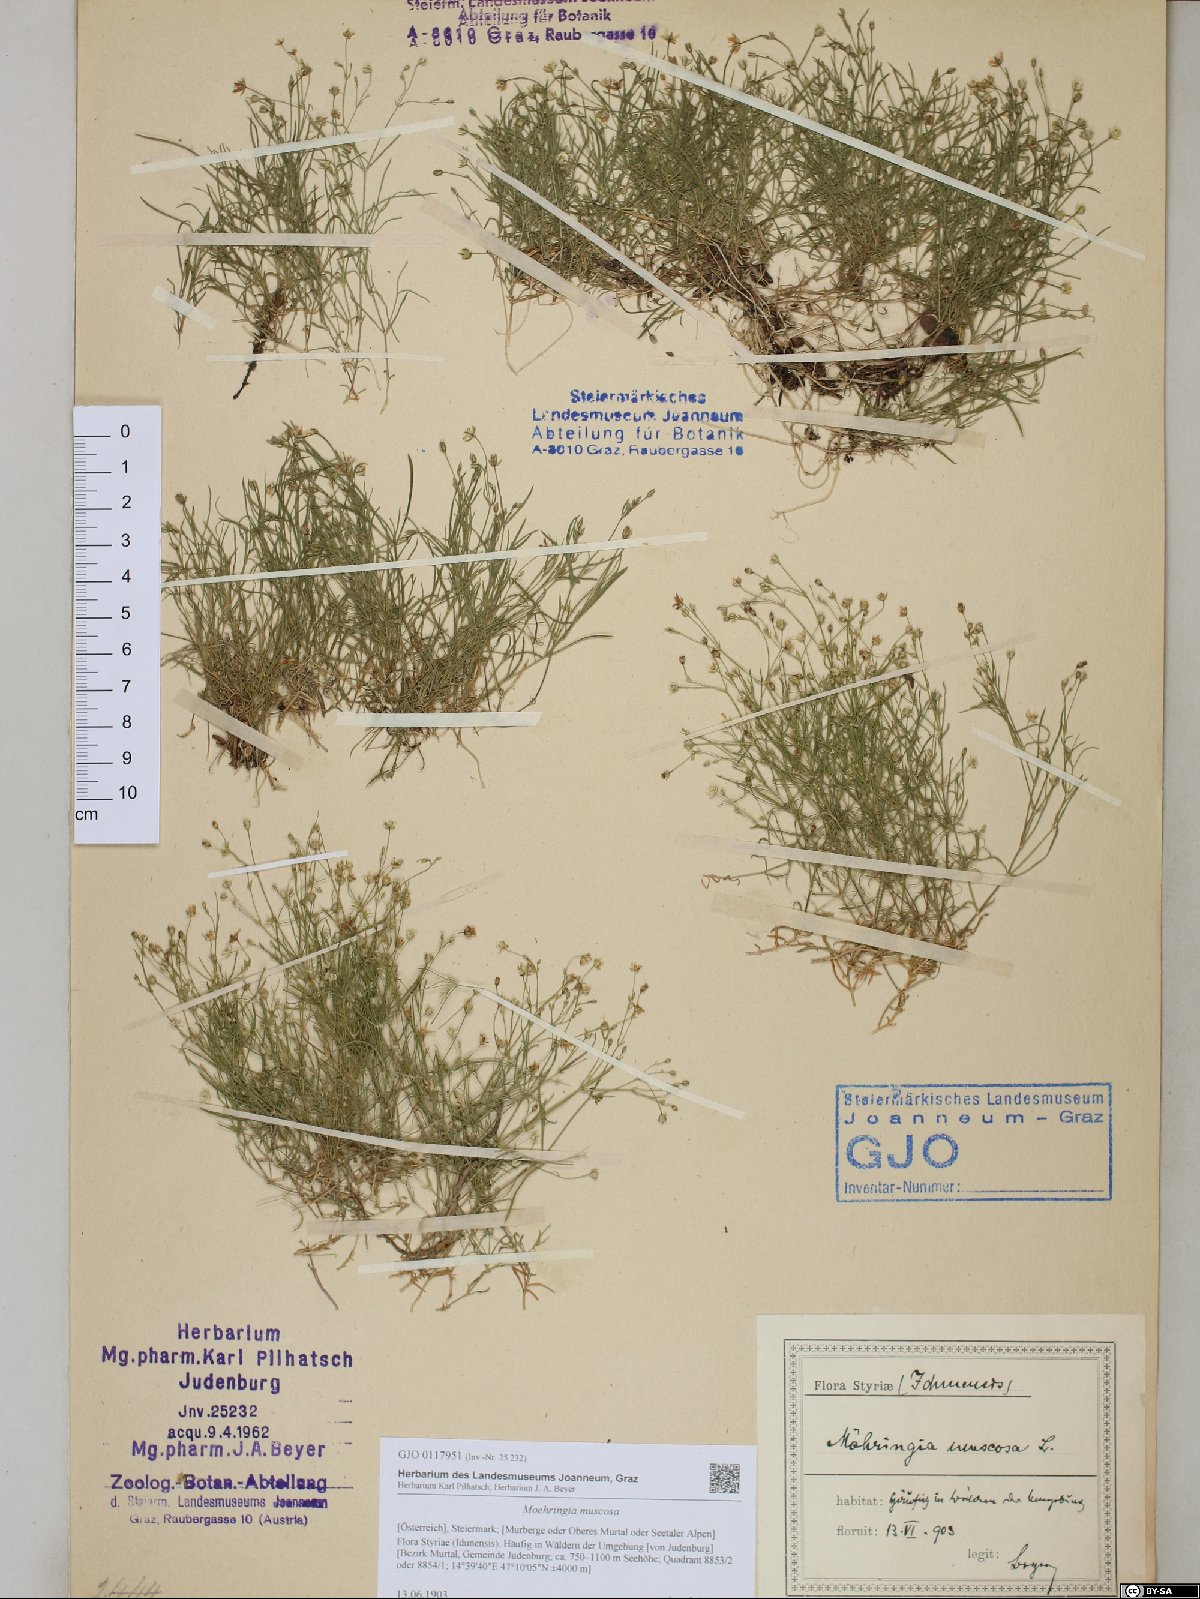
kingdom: Plantae
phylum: Tracheophyta
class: Magnoliopsida
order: Caryophyllales
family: Caryophyllaceae
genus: Moehringia
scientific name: Moehringia muscosa
